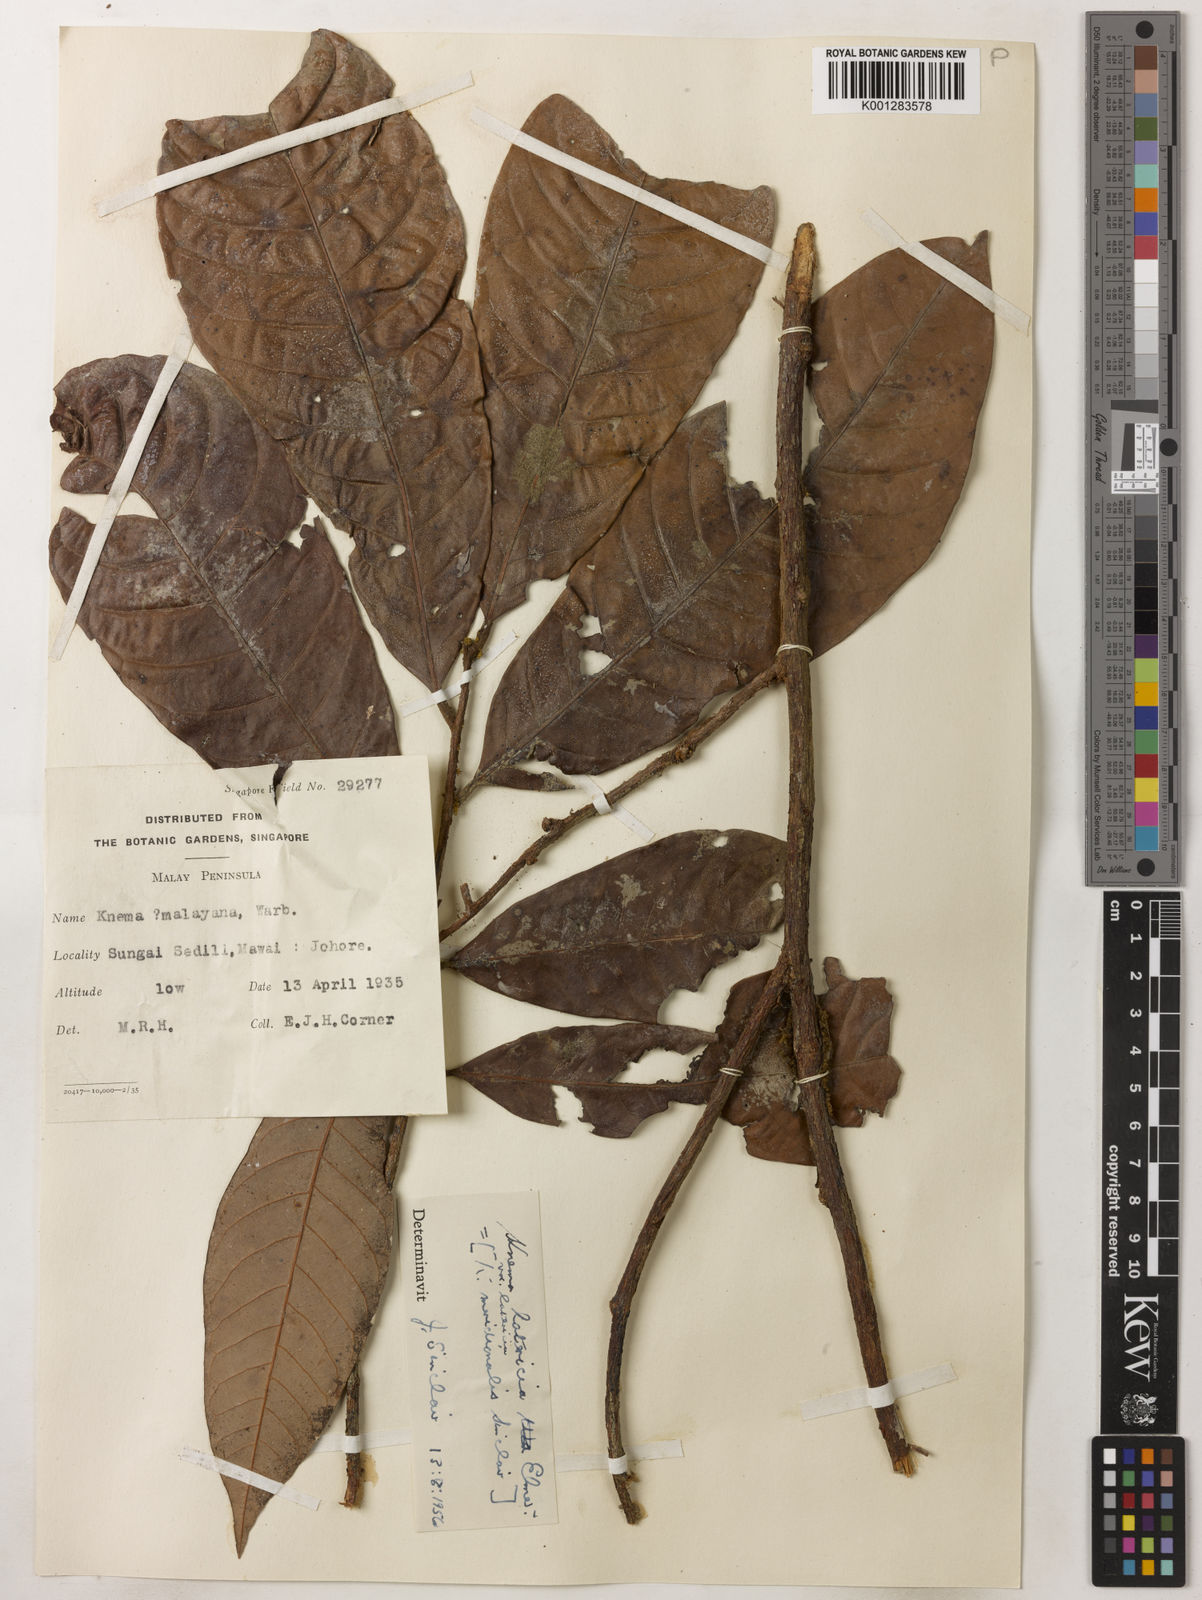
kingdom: Plantae
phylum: Tracheophyta
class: Magnoliopsida
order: Magnoliales
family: Myristicaceae
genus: Knema
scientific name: Knema latericia
